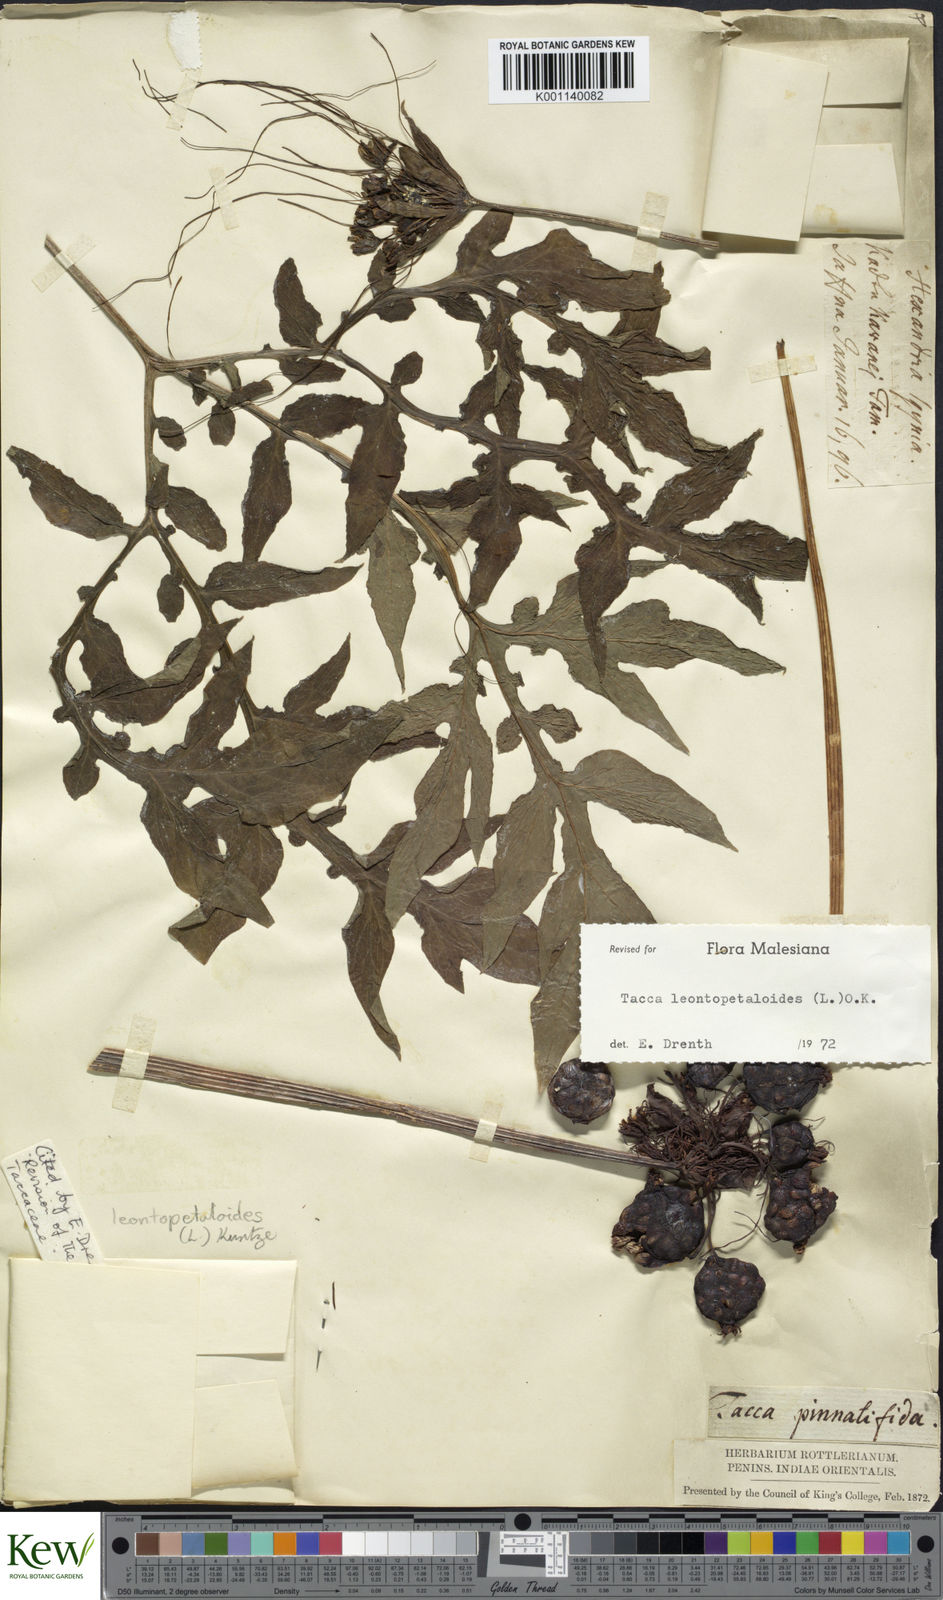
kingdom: Plantae
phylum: Tracheophyta
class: Liliopsida
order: Dioscoreales
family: Dioscoreaceae
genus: Tacca
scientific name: Tacca leontopetaloides
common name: Arrowroot
